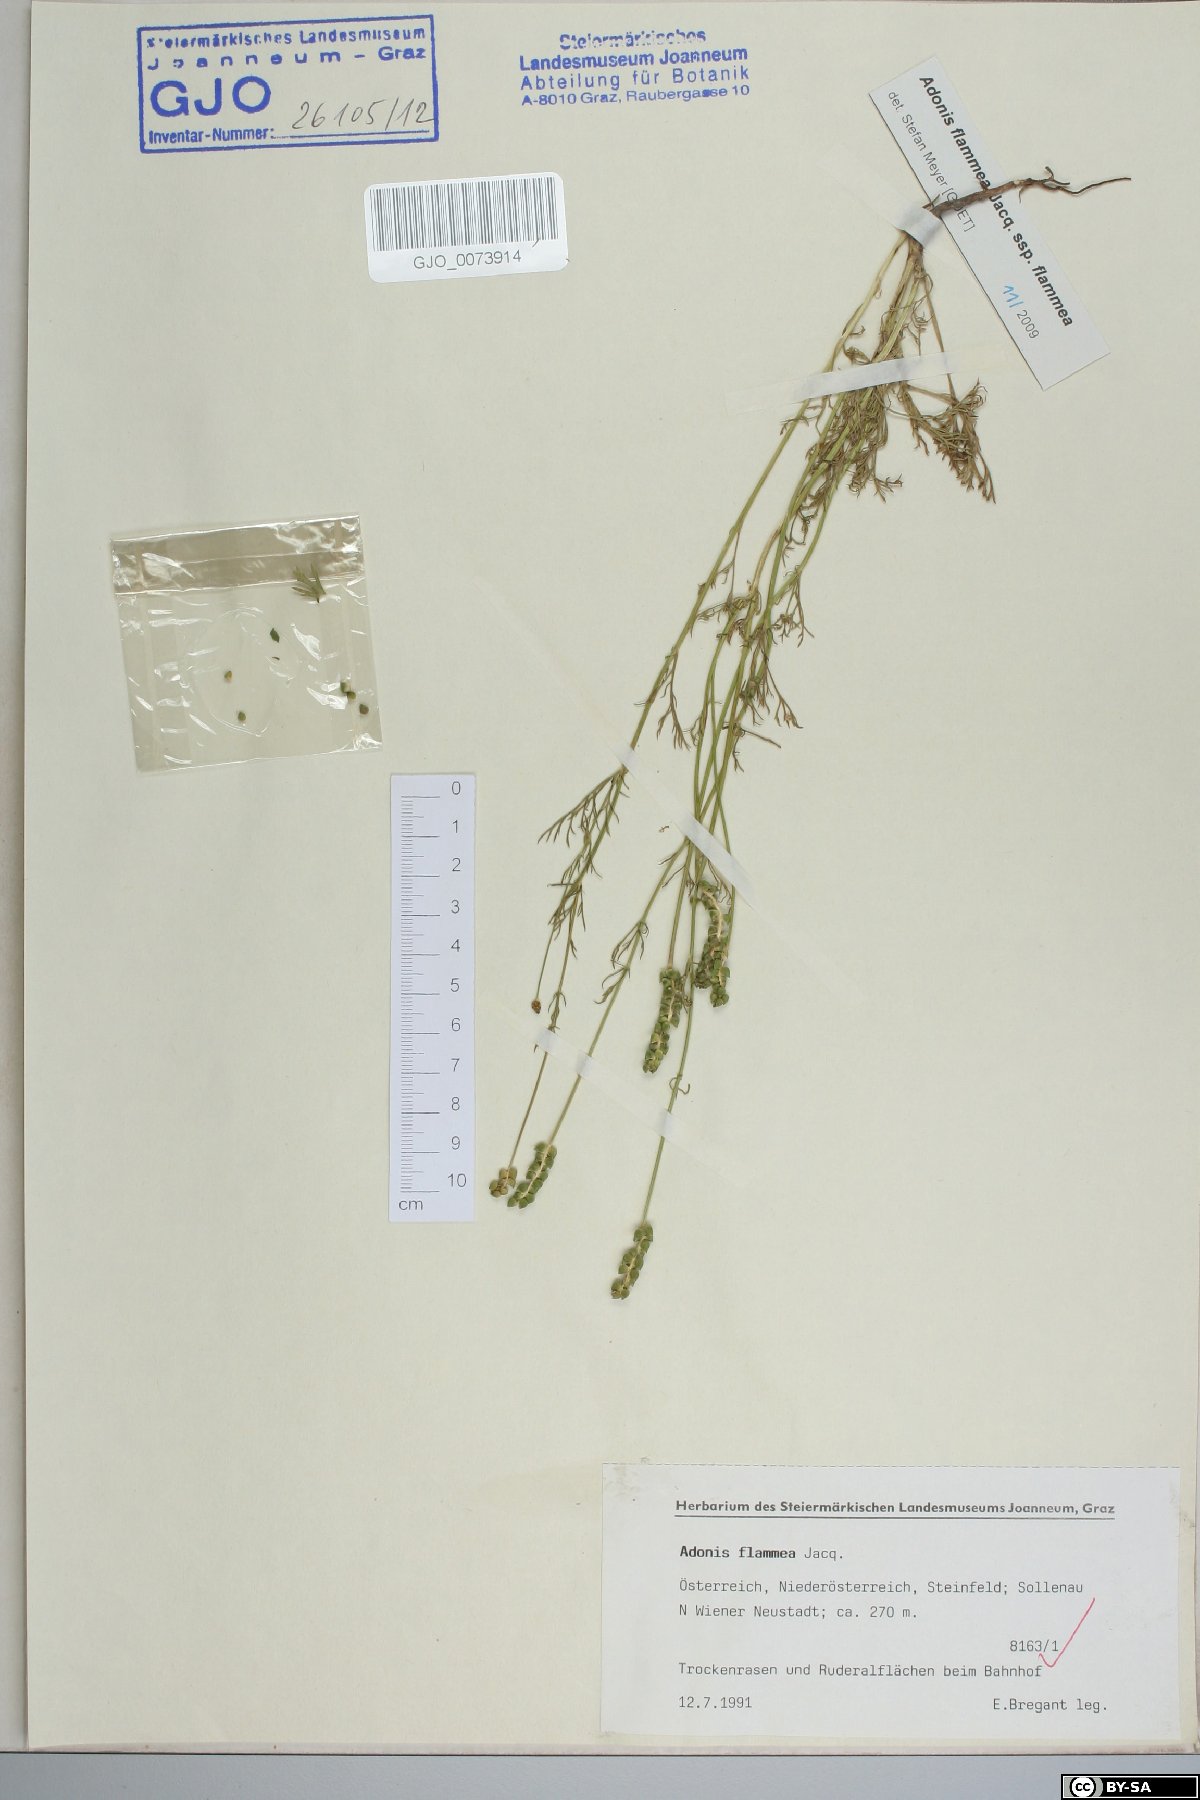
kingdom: Plantae
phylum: Tracheophyta
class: Magnoliopsida
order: Ranunculales
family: Ranunculaceae
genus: Adonis
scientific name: Adonis flammea
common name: Large pheasant's-eye
